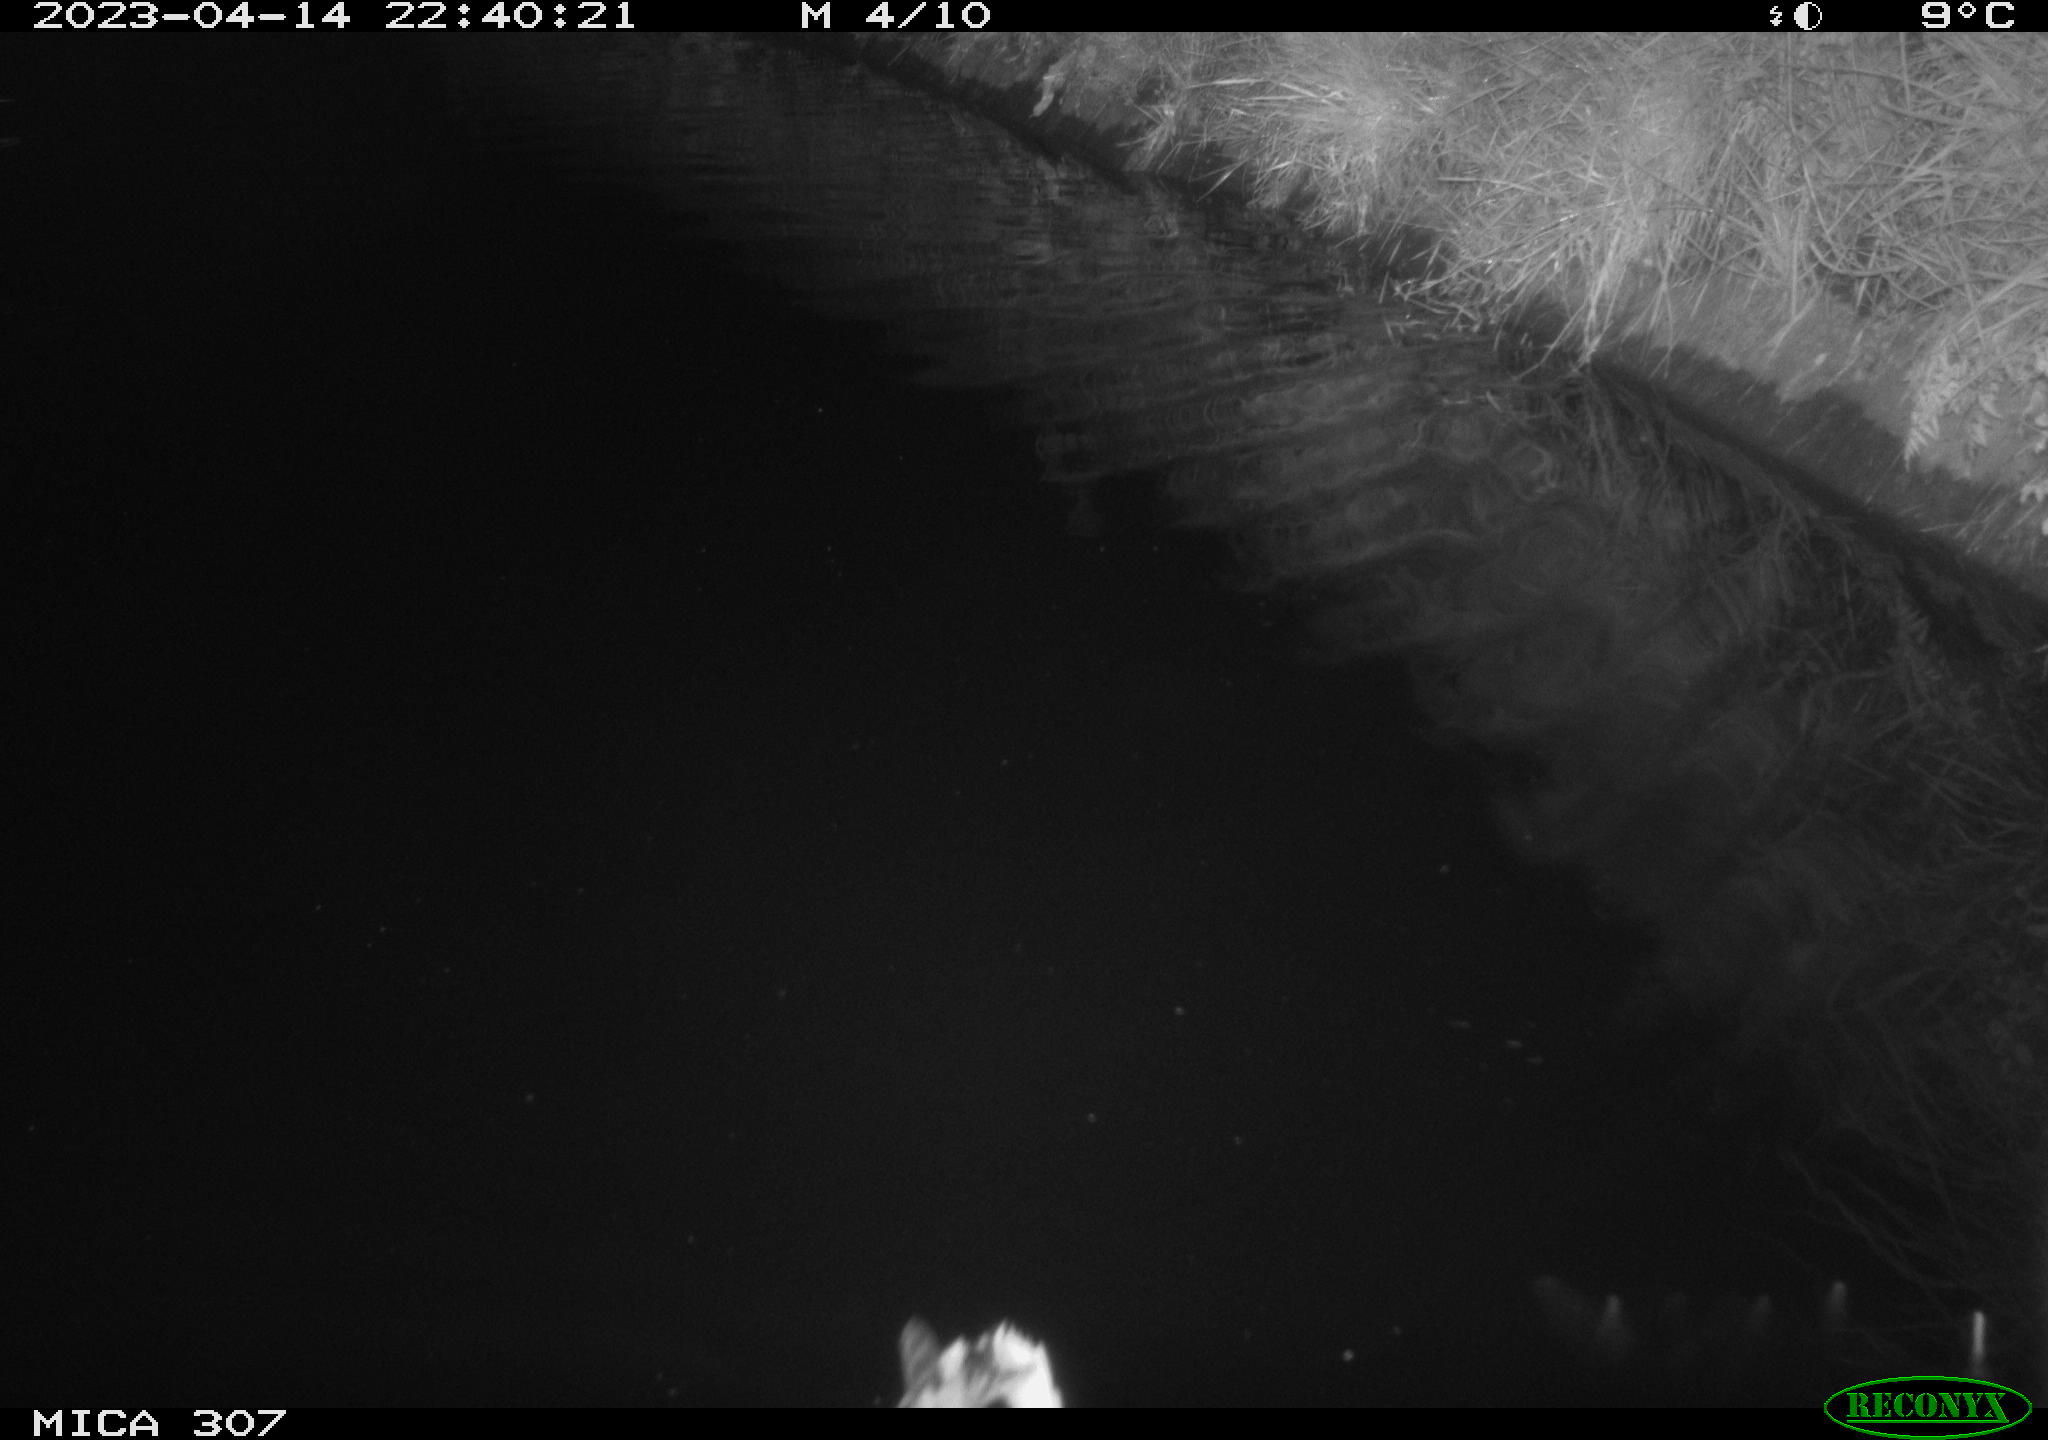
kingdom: Animalia
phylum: Chordata
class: Aves
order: Anseriformes
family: Anatidae
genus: Anas
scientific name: Anas
